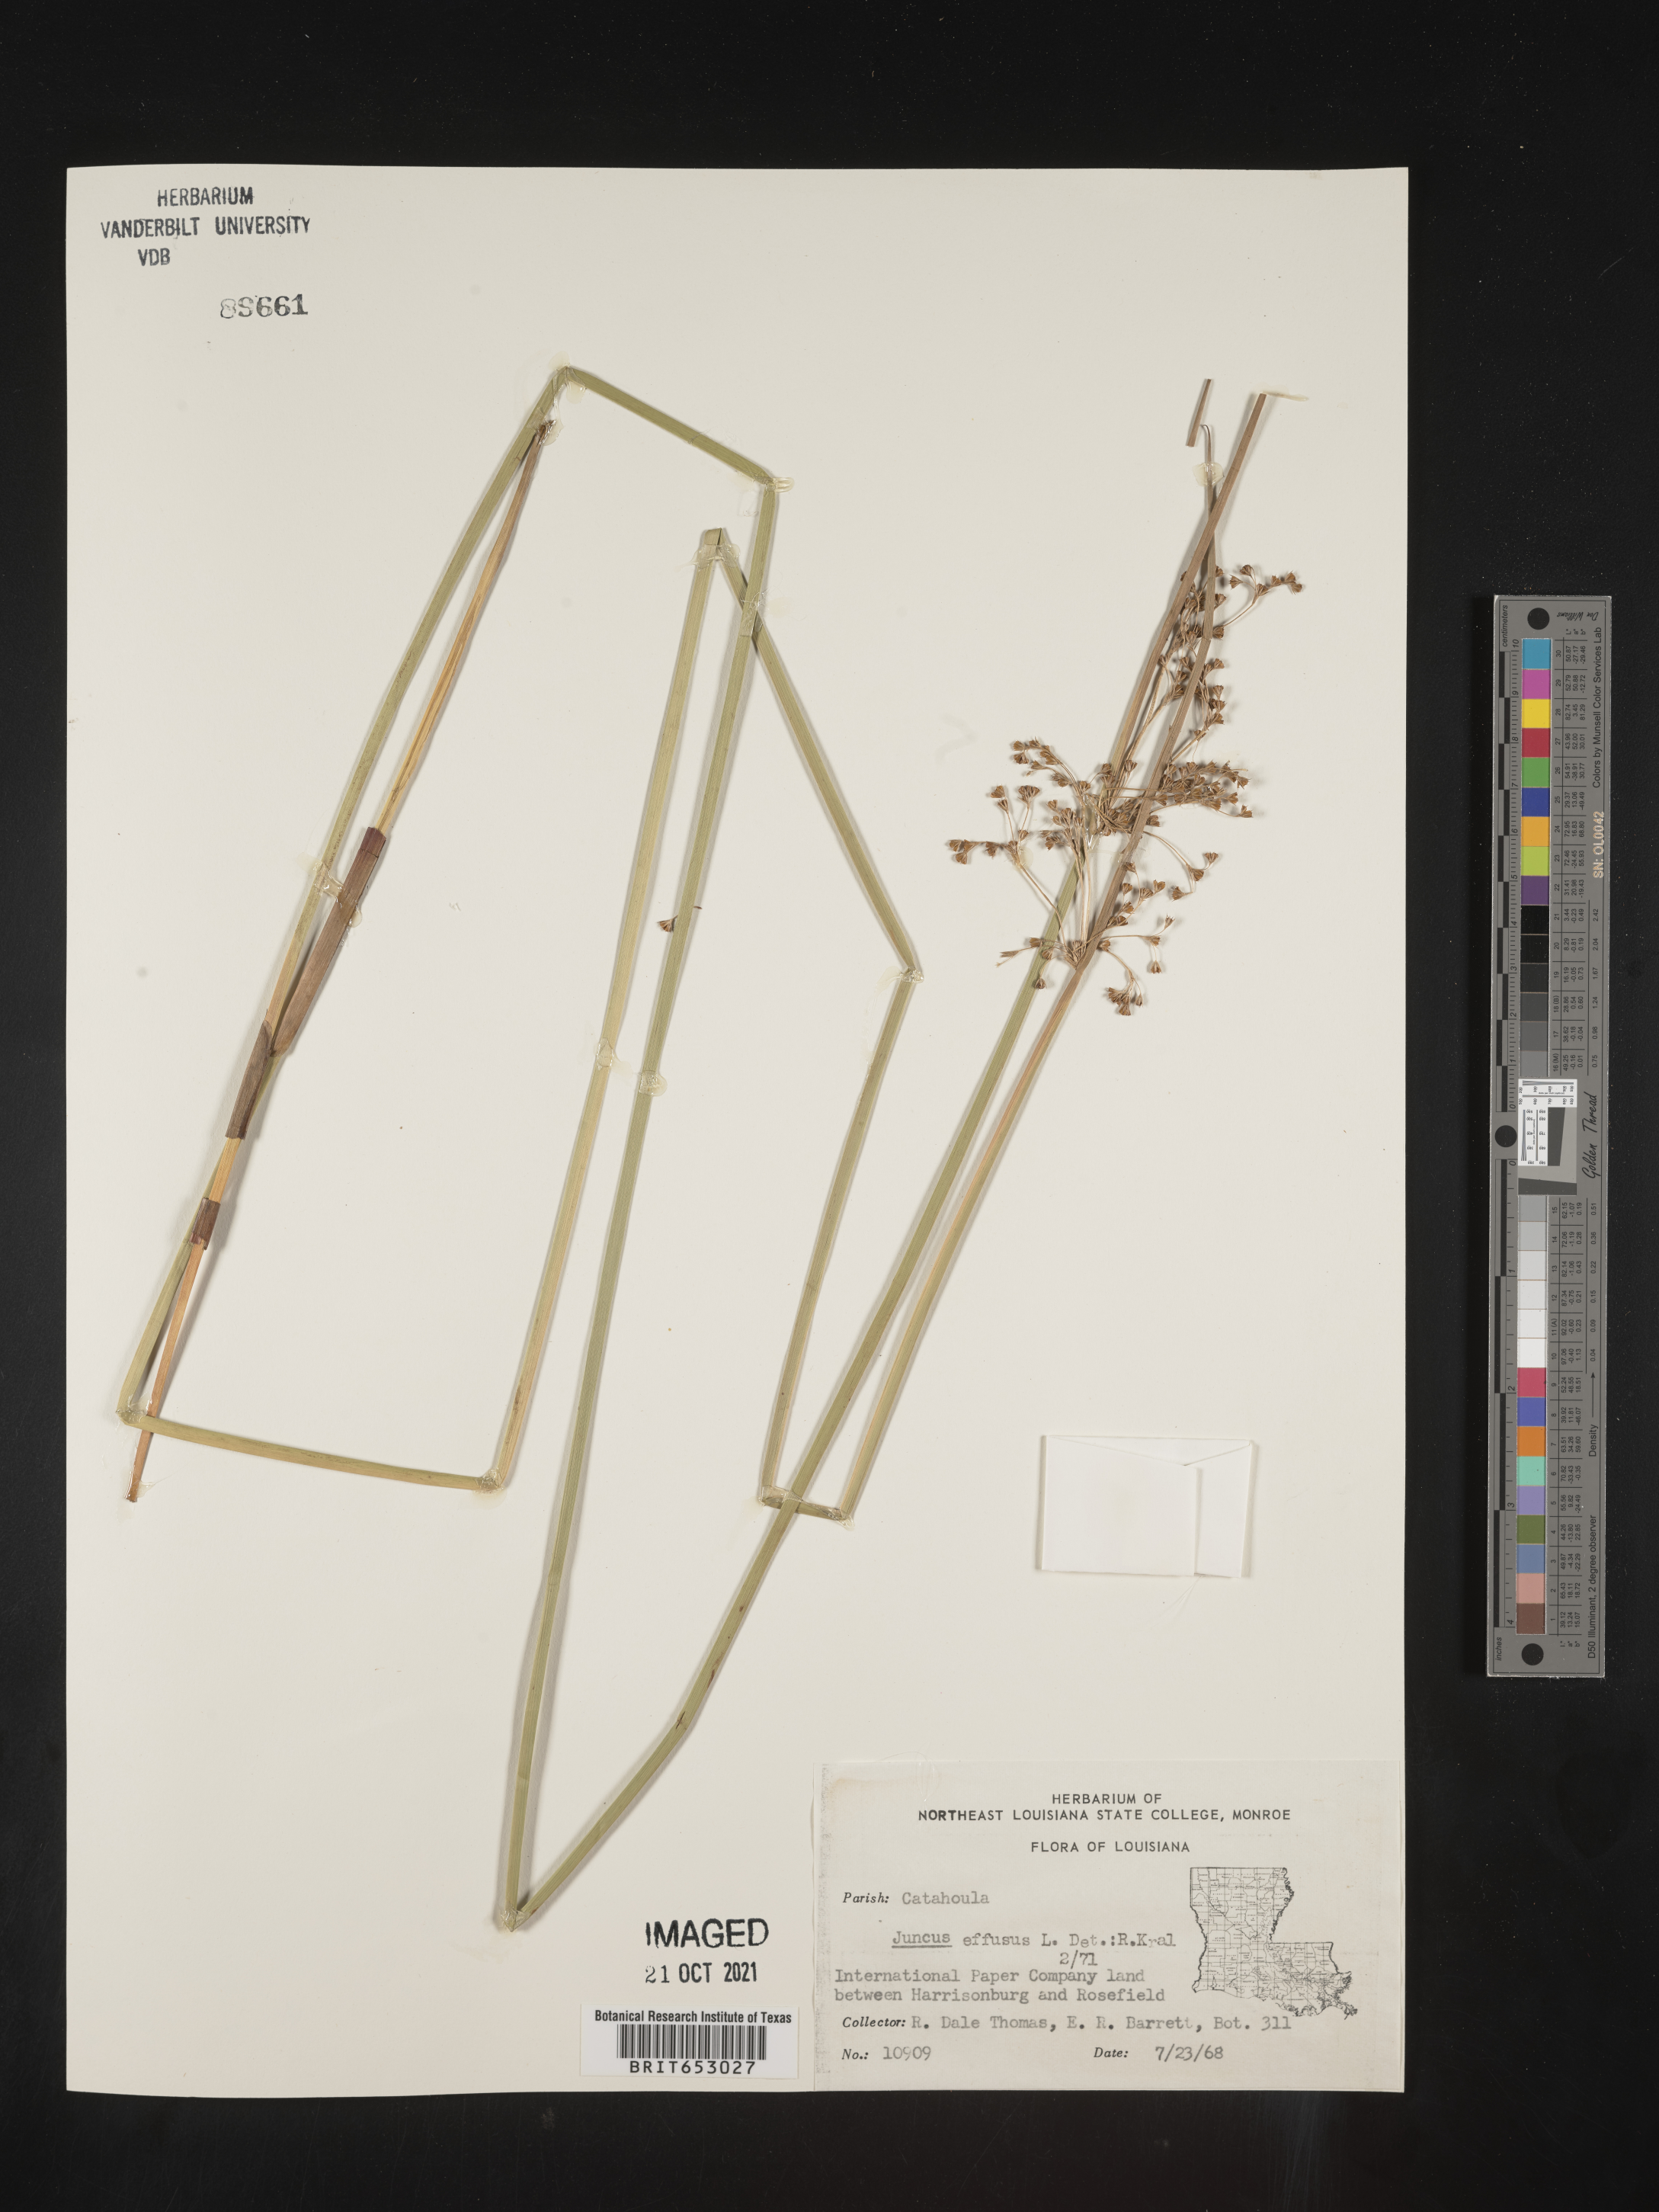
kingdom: Plantae
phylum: Tracheophyta
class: Liliopsida
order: Poales
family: Juncaceae
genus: Juncus
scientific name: Juncus effusus
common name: Soft rush
